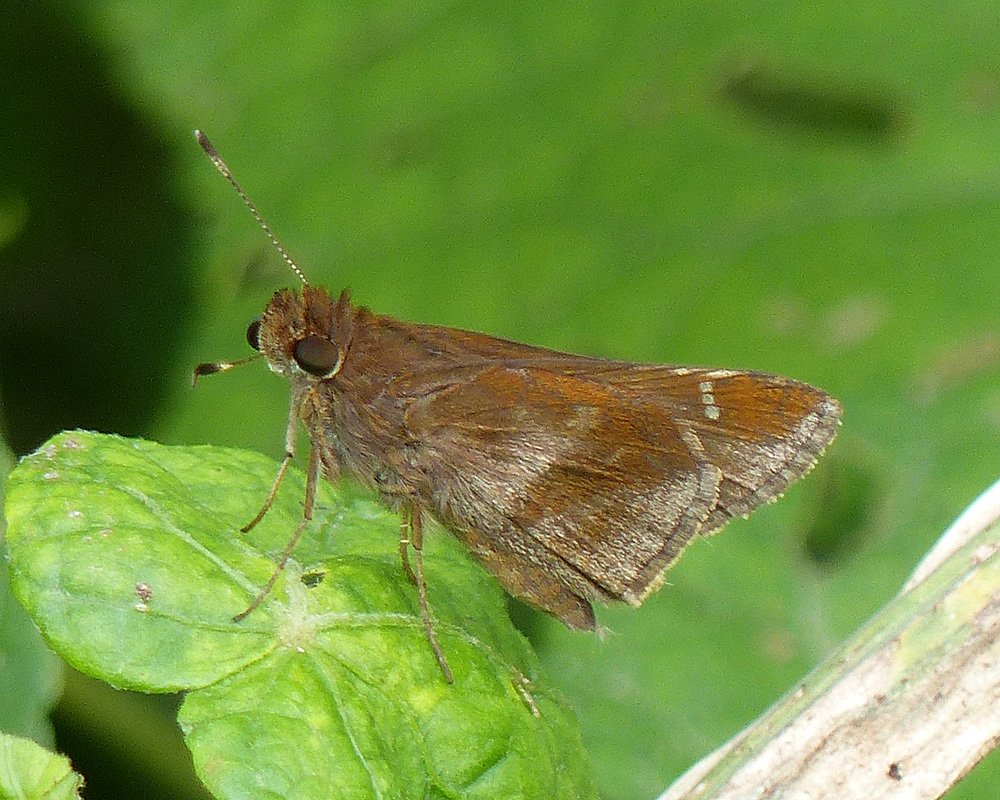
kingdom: Animalia
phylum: Arthropoda
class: Insecta
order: Lepidoptera
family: Hesperiidae
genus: Lerema
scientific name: Lerema accius
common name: Clouded Skipper
